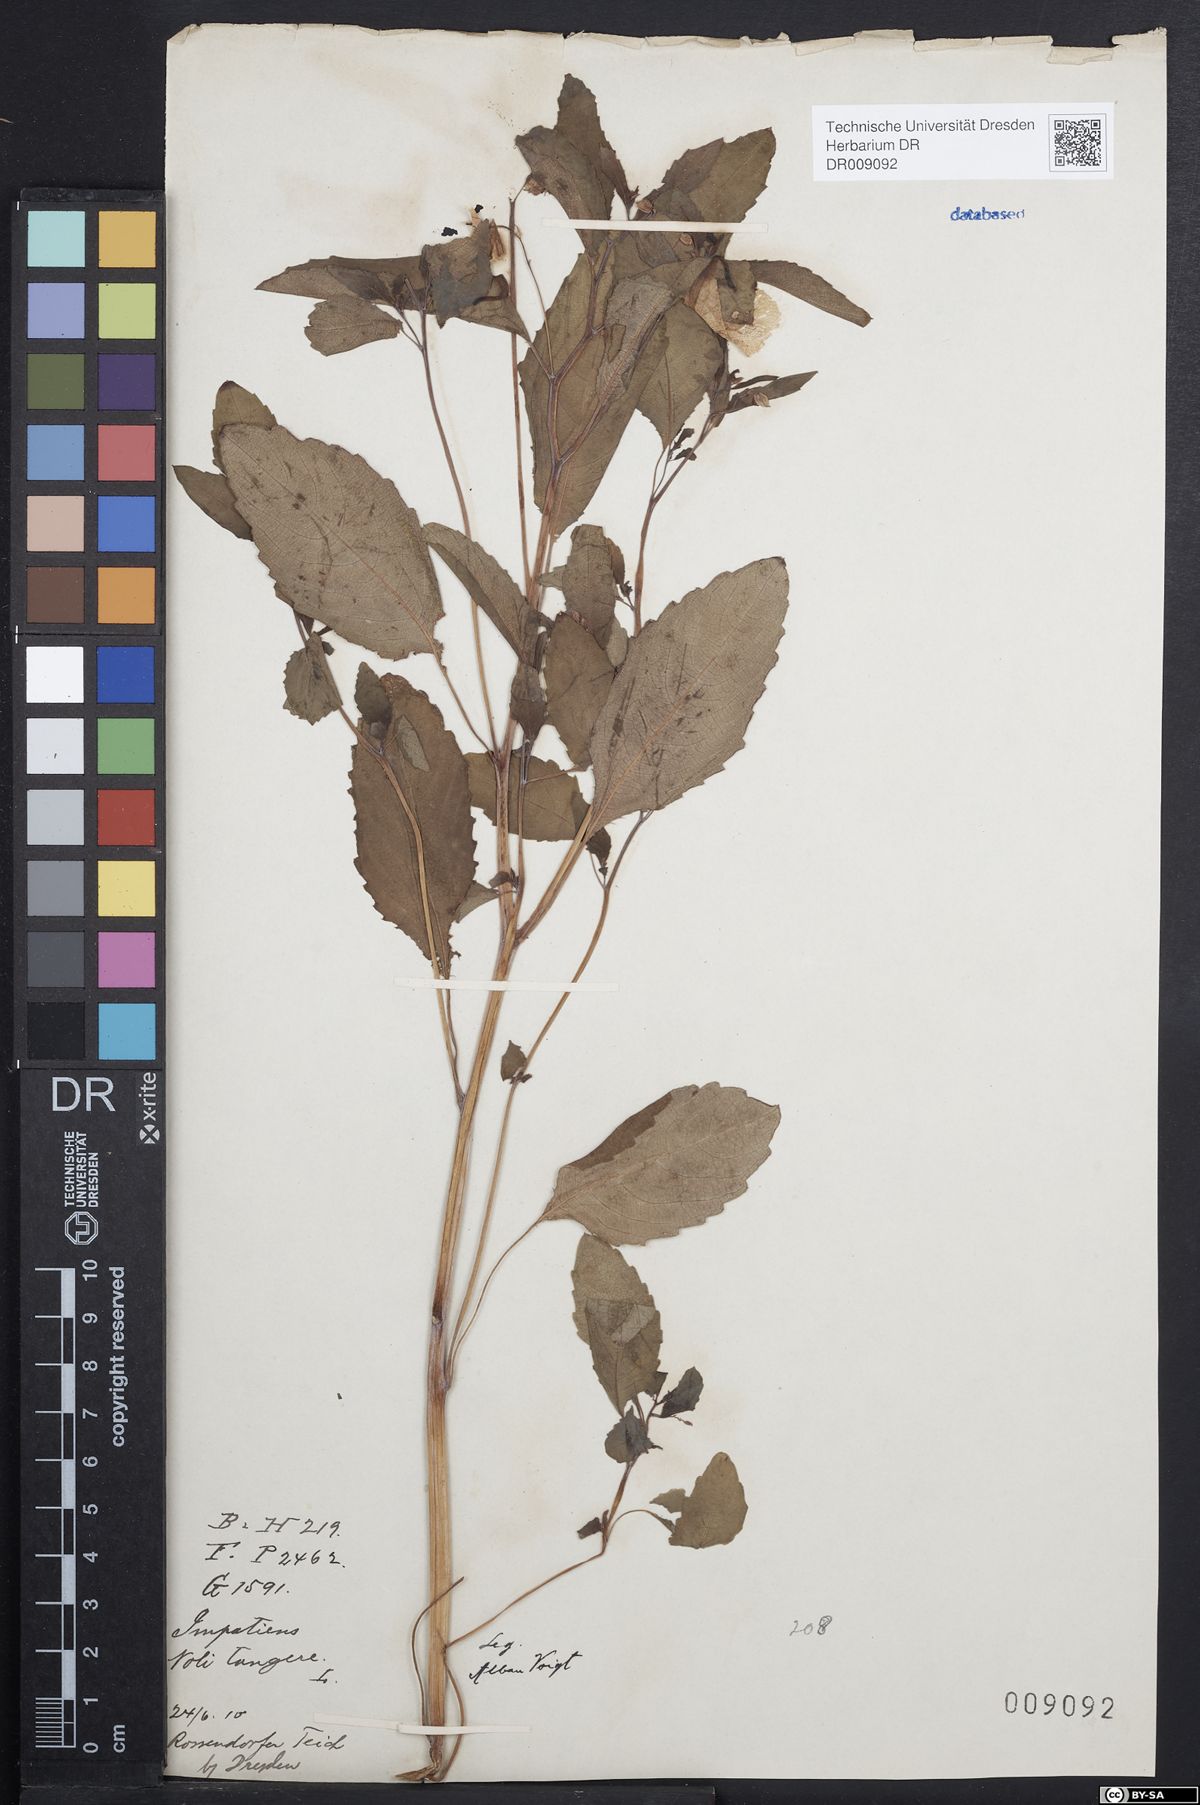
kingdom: Plantae
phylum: Tracheophyta
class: Magnoliopsida
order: Ericales
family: Balsaminaceae
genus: Impatiens
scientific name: Impatiens noli-tangere
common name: Touch-me-not balsam
